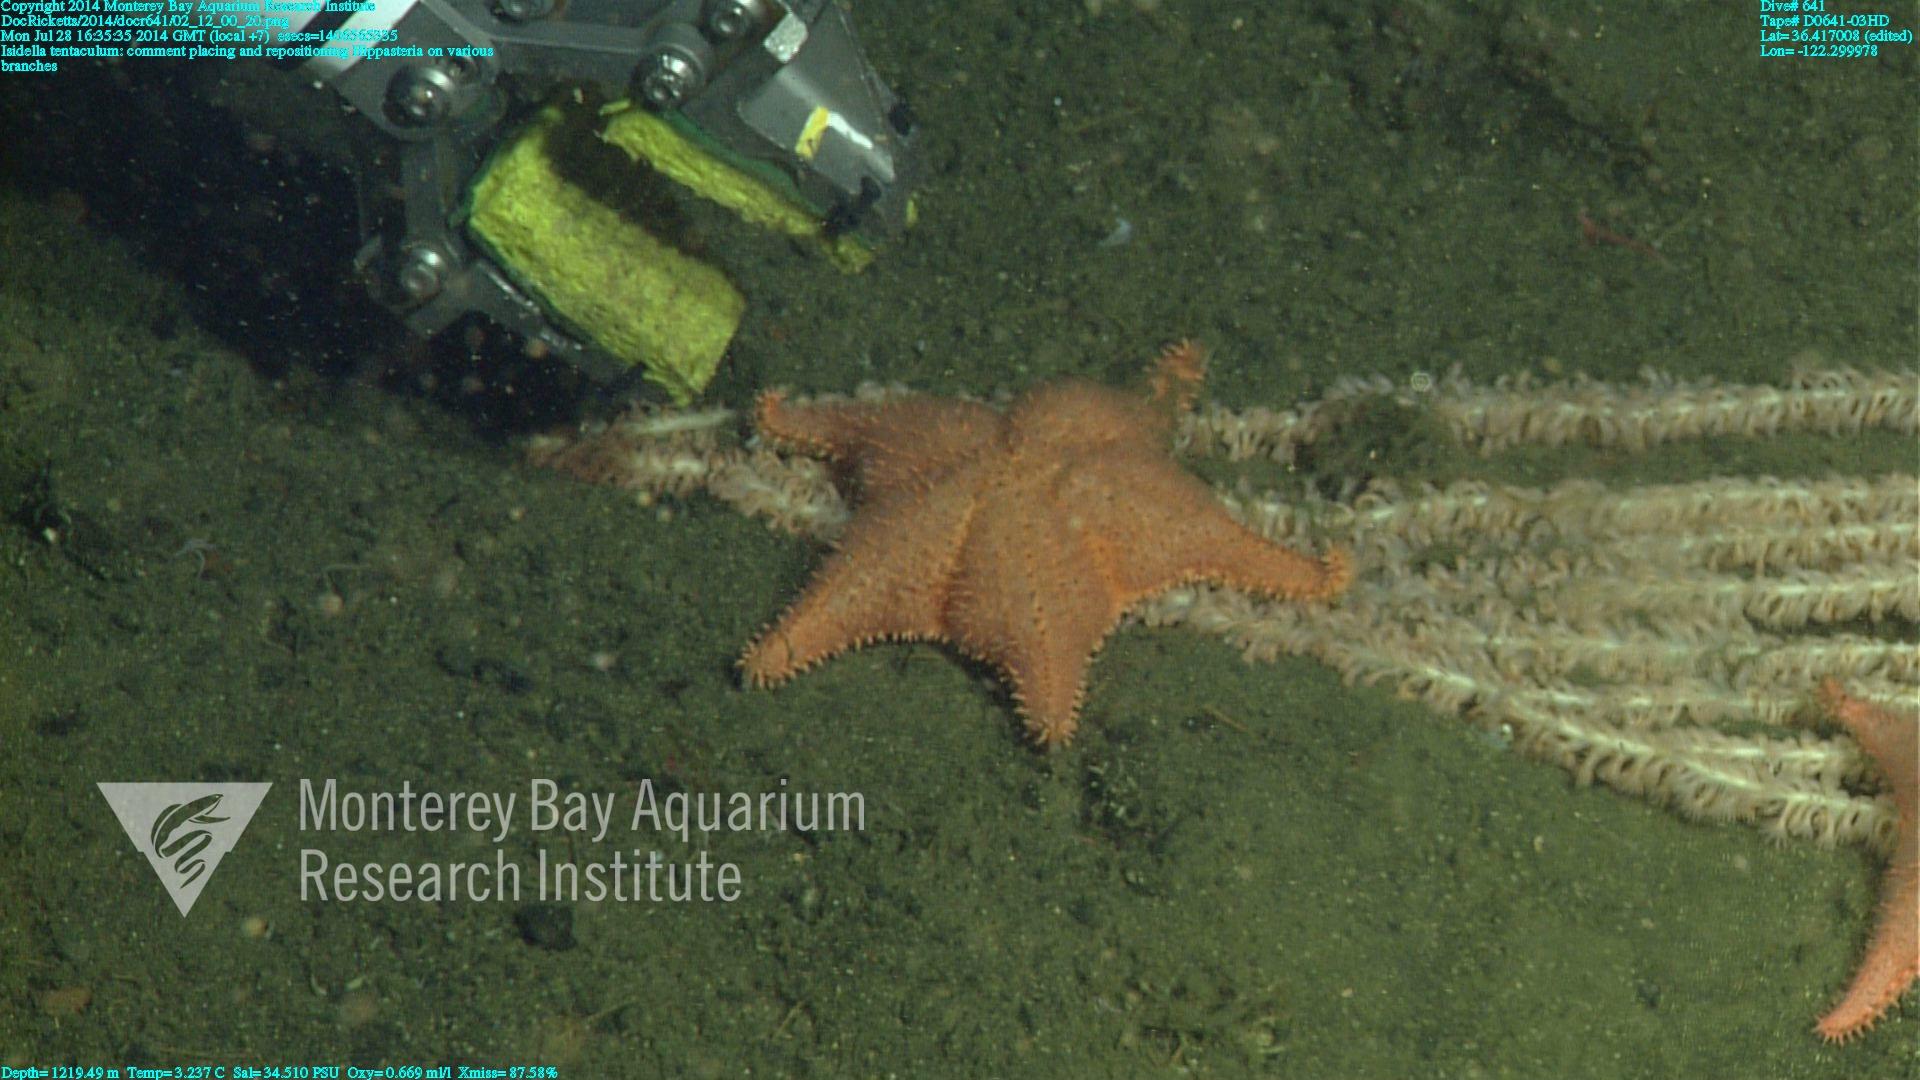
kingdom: Animalia
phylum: Cnidaria
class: Anthozoa
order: Scleralcyonacea
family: Keratoisididae
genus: Isidella
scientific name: Isidella tentaculum
